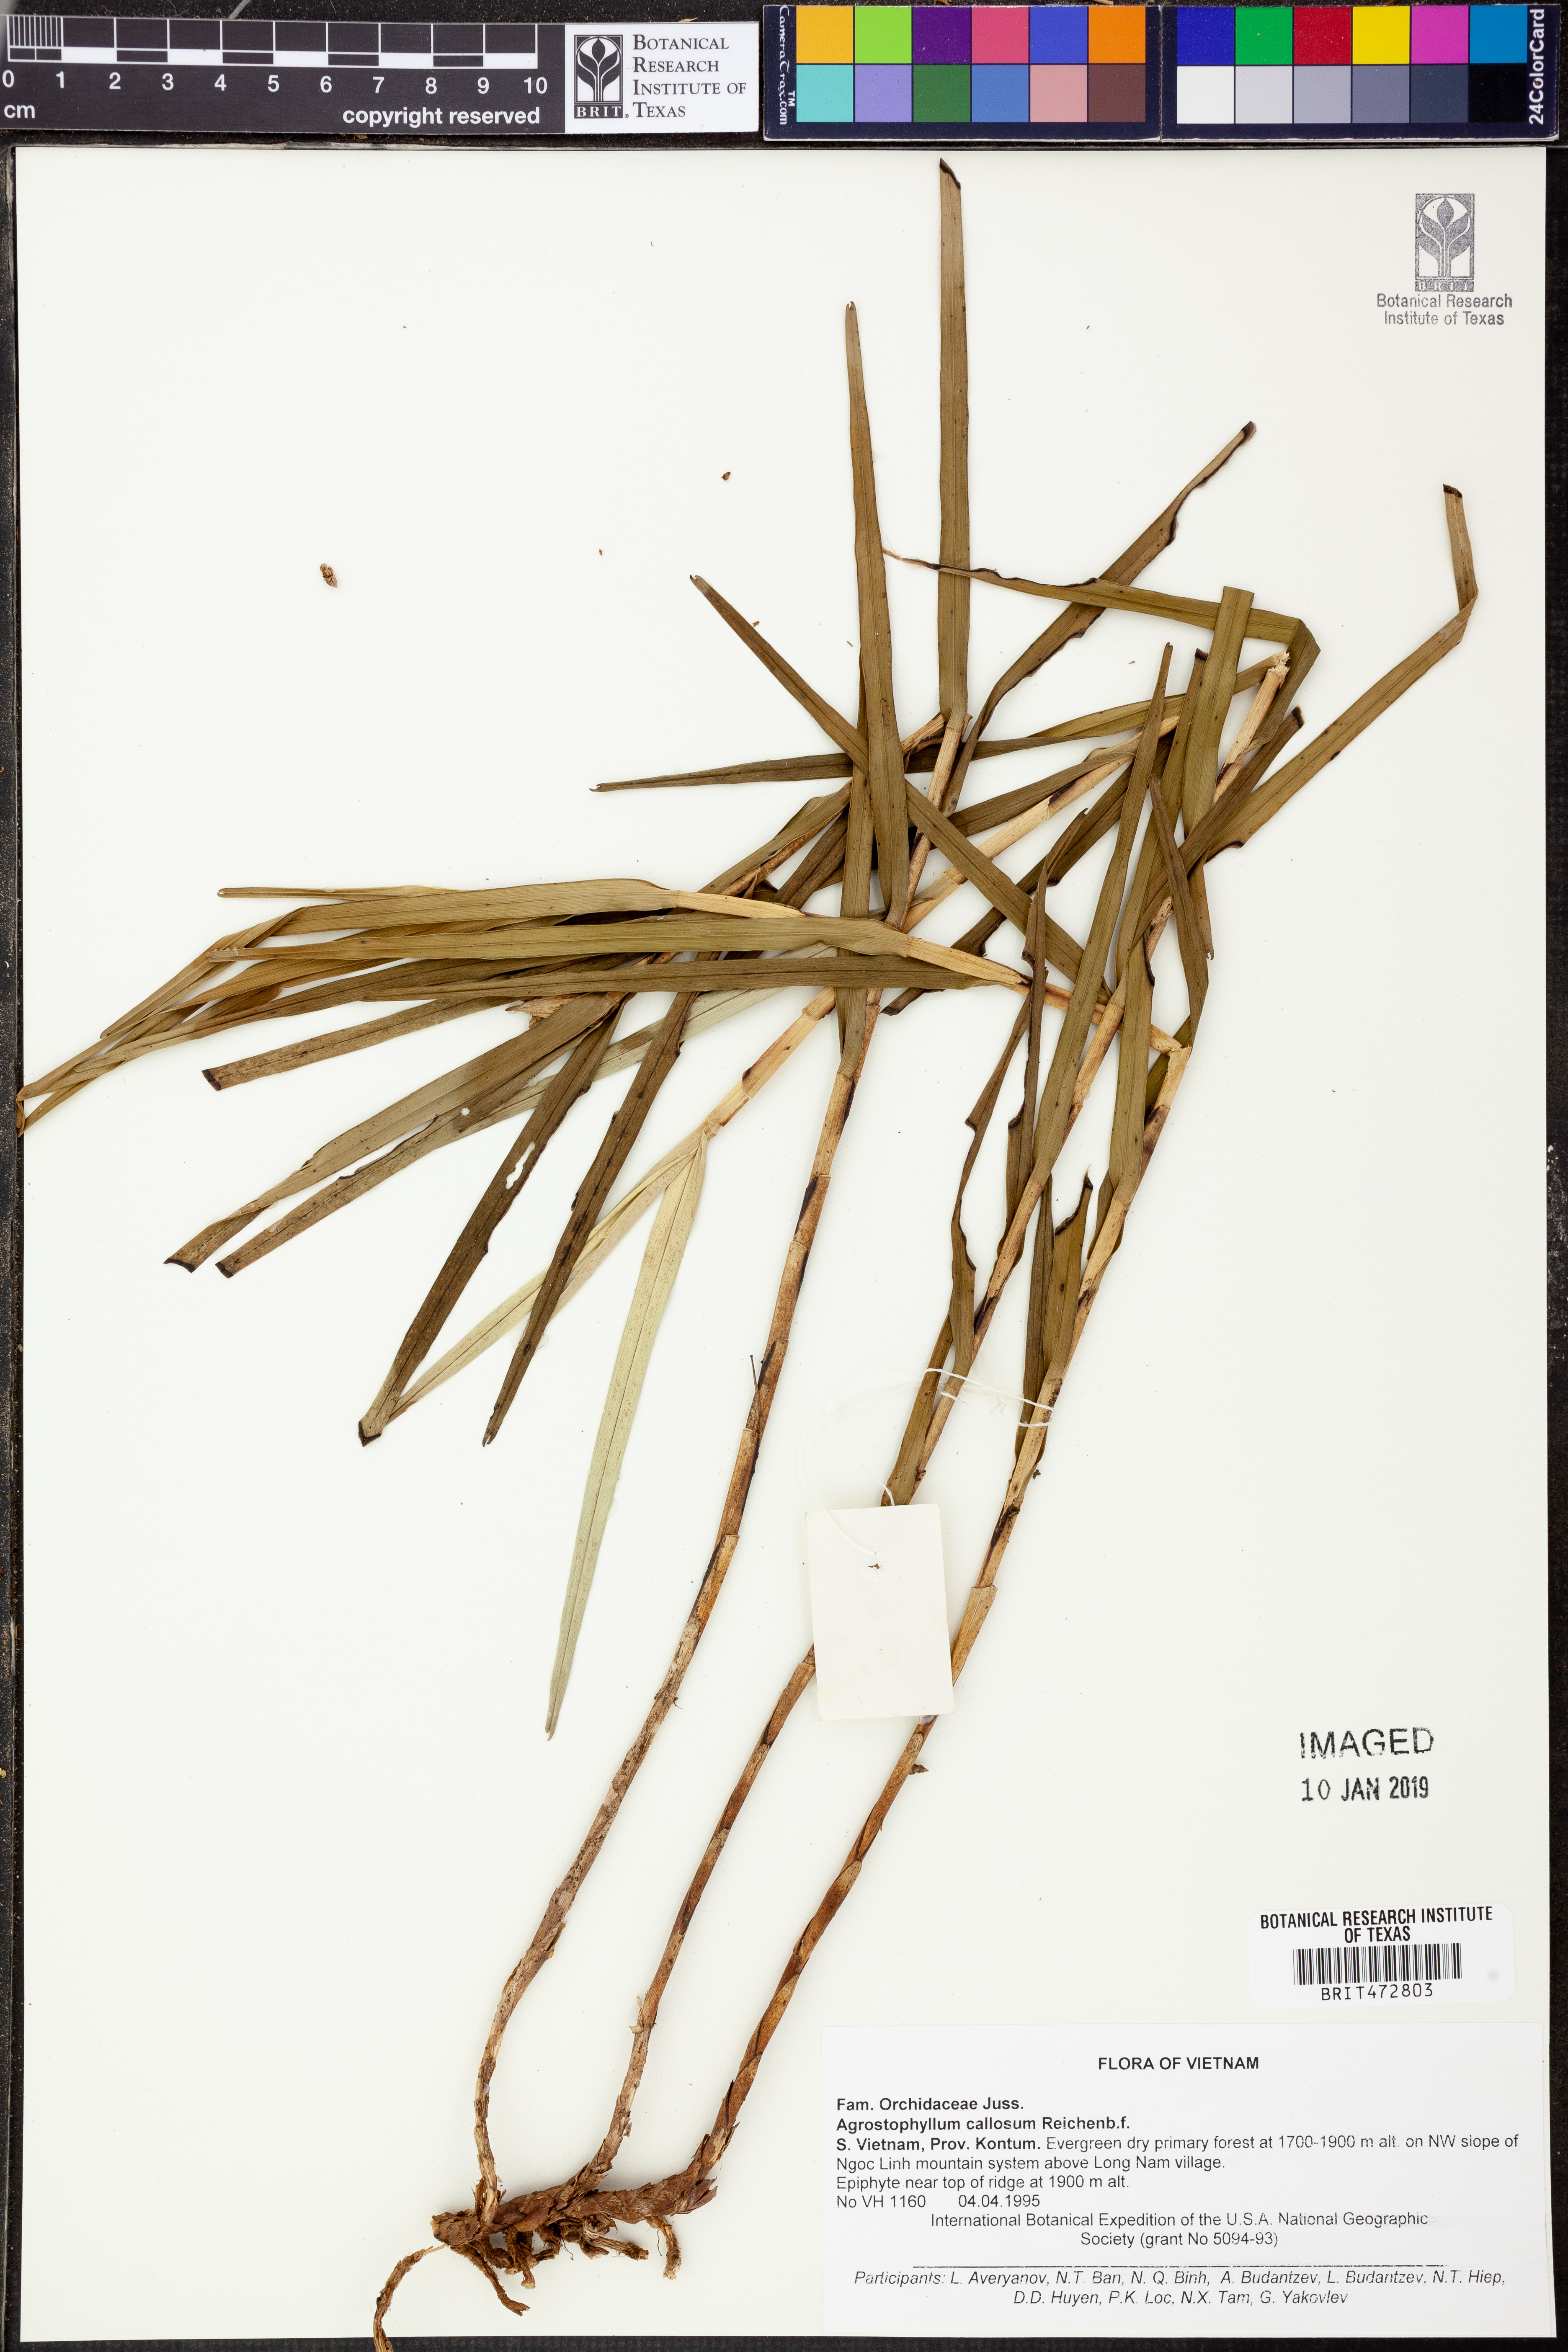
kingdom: Plantae
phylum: Tracheophyta
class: Liliopsida
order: Asparagales
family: Orchidaceae
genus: Agrostophyllum
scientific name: Agrostophyllum callosum
